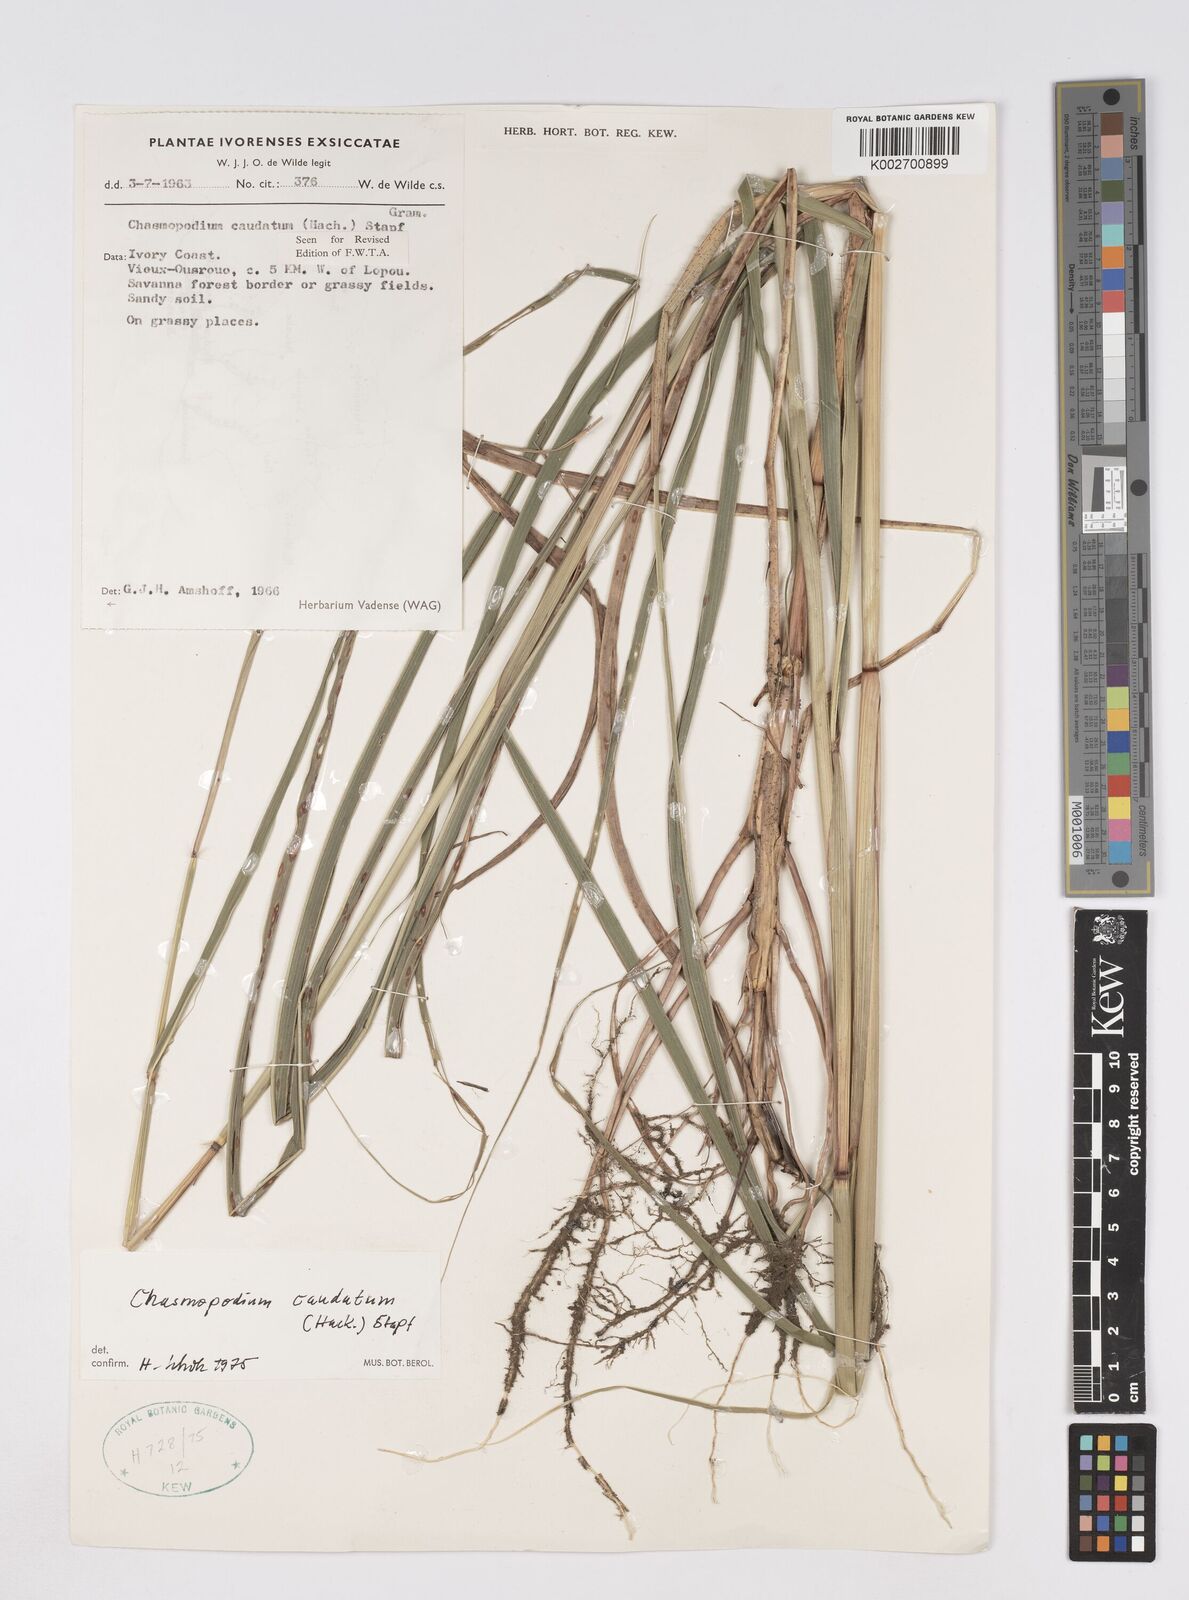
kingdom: Plantae
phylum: Tracheophyta
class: Liliopsida
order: Poales
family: Poaceae
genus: Chasmopodium
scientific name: Chasmopodium caudatum
